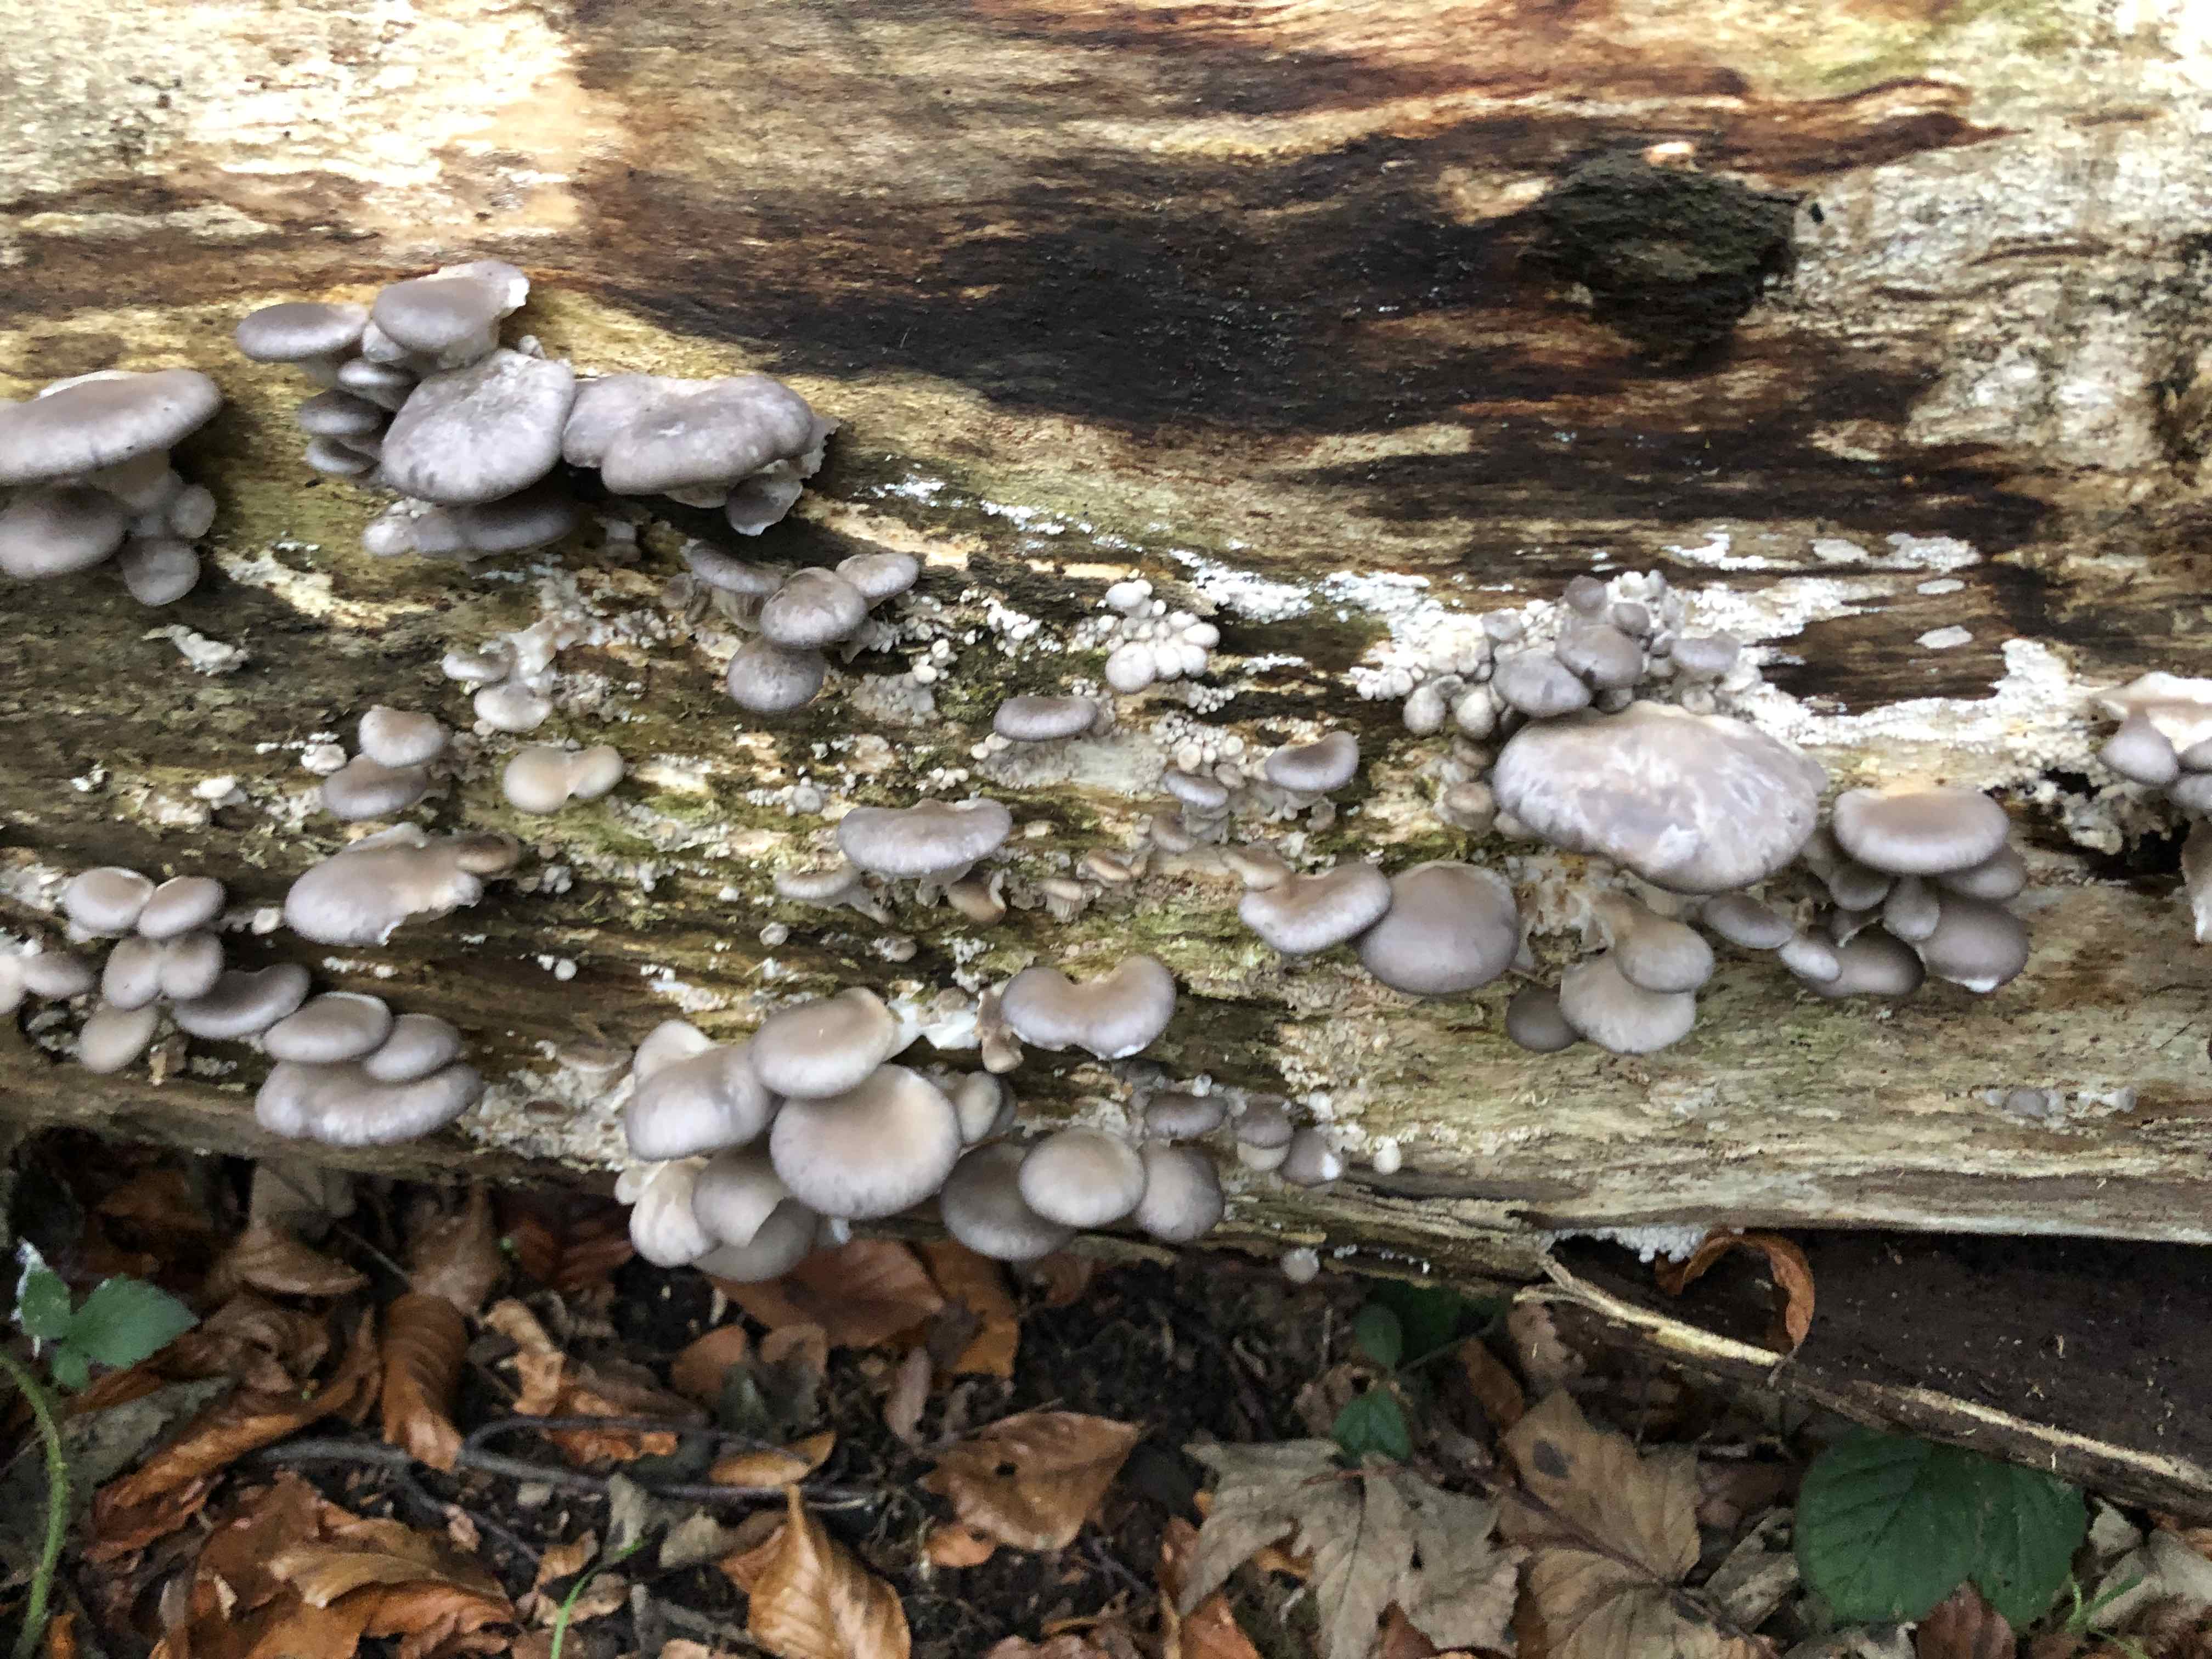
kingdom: Fungi
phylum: Basidiomycota
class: Agaricomycetes
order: Agaricales
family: Pleurotaceae
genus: Pleurotus
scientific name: Pleurotus ostreatus
